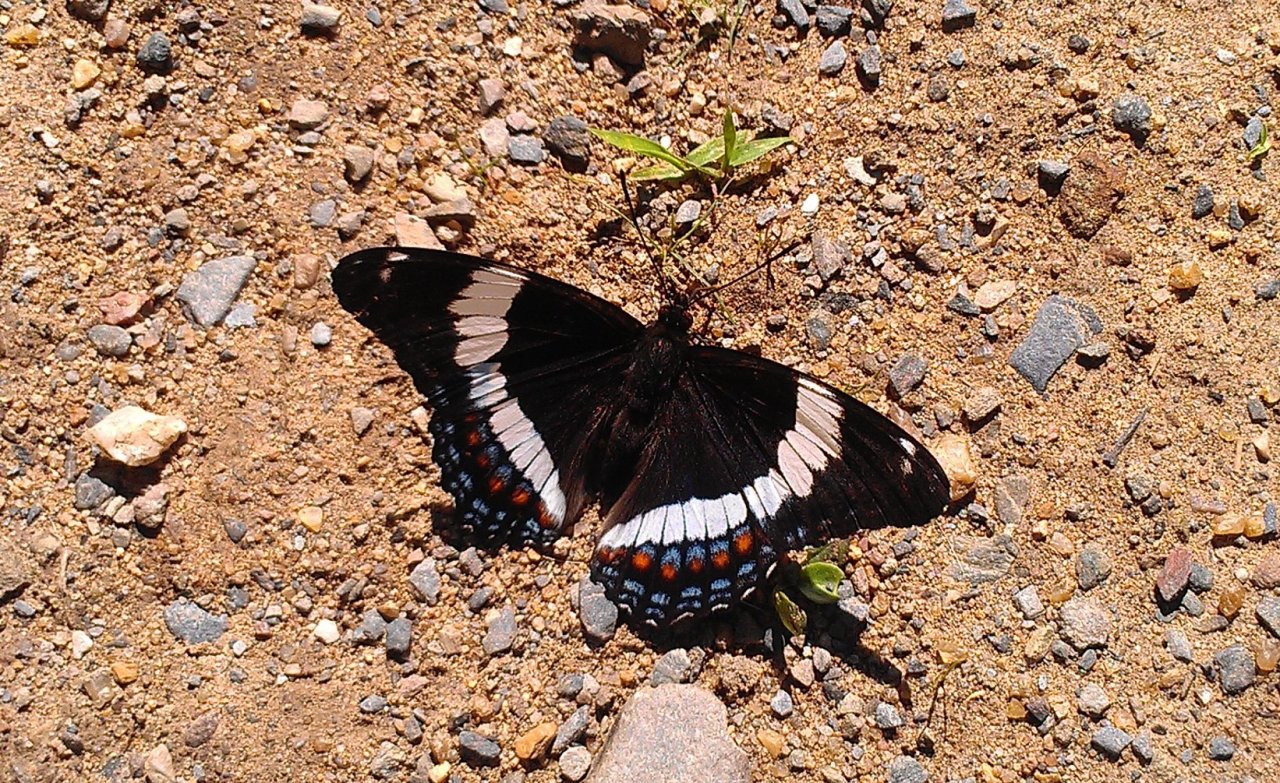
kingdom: Animalia
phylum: Arthropoda
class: Insecta
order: Lepidoptera
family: Nymphalidae
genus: Limenitis
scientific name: Limenitis arthemis
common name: Red-spotted Admiral
